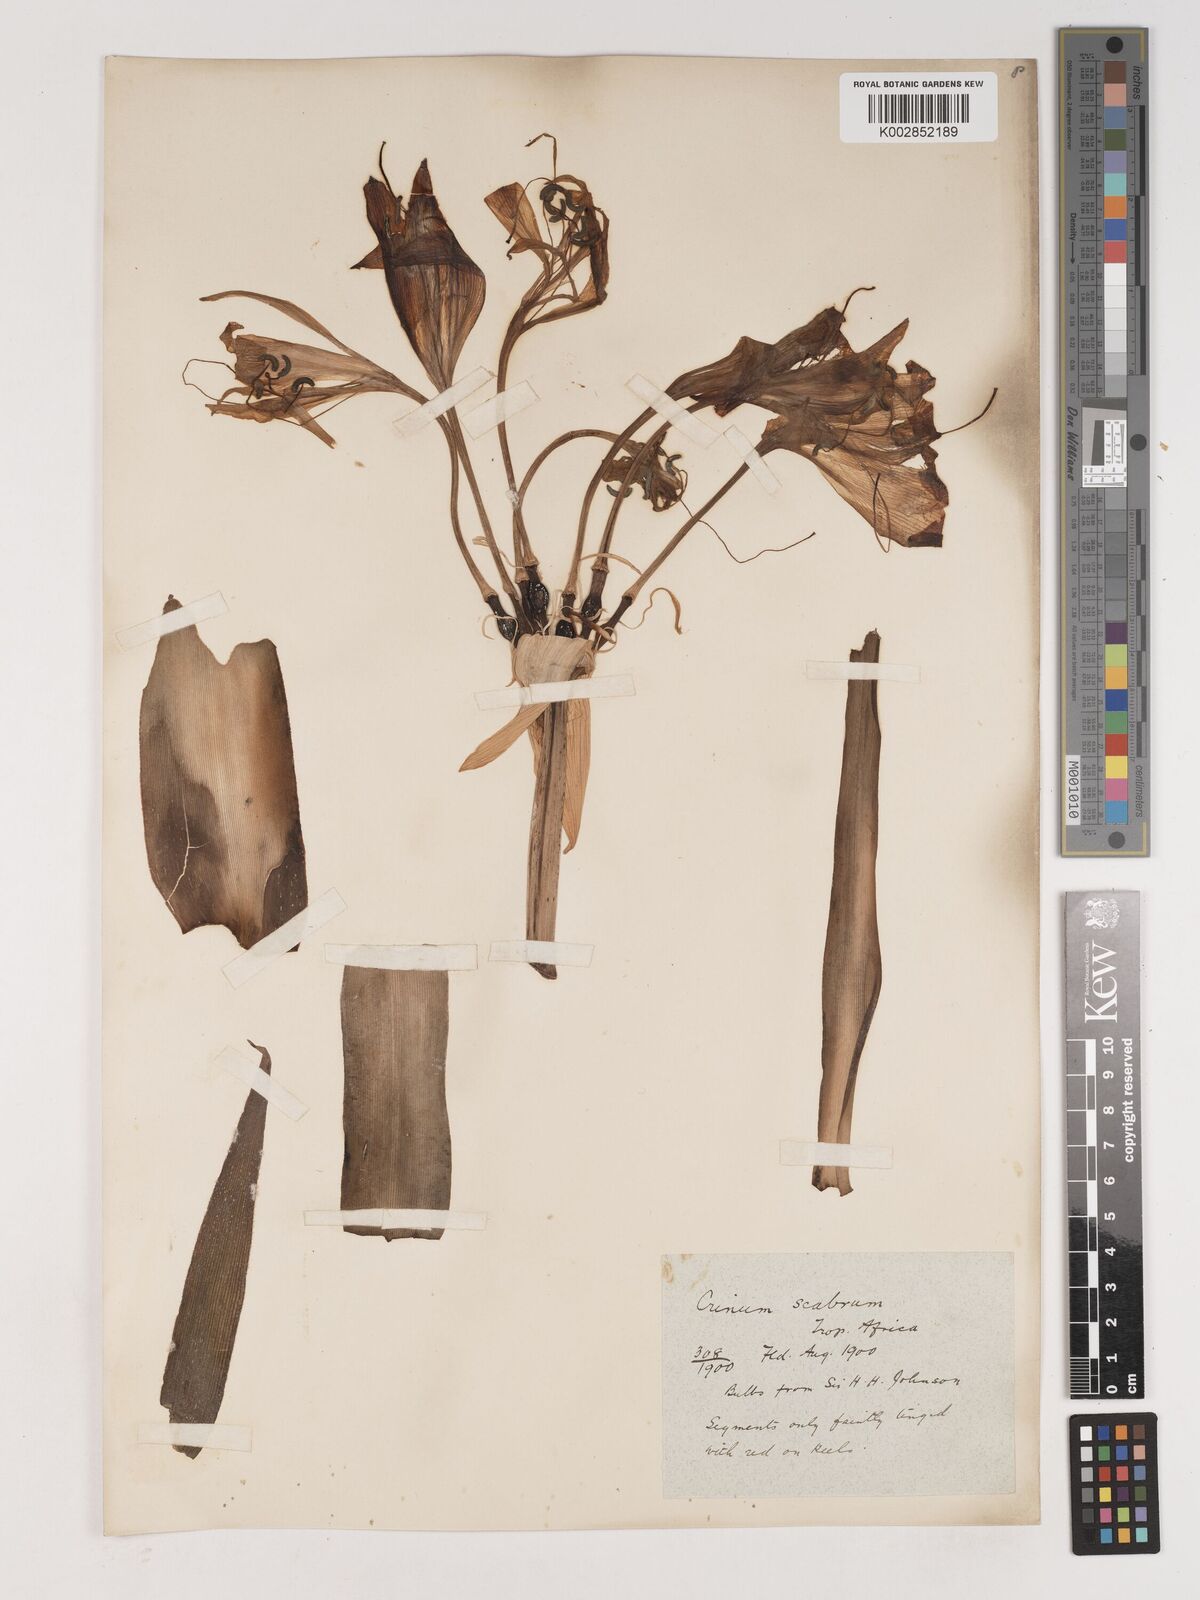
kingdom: Plantae
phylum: Tracheophyta
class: Liliopsida
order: Asparagales
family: Amaryllidaceae
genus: Crinum
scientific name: Crinum ornatum
